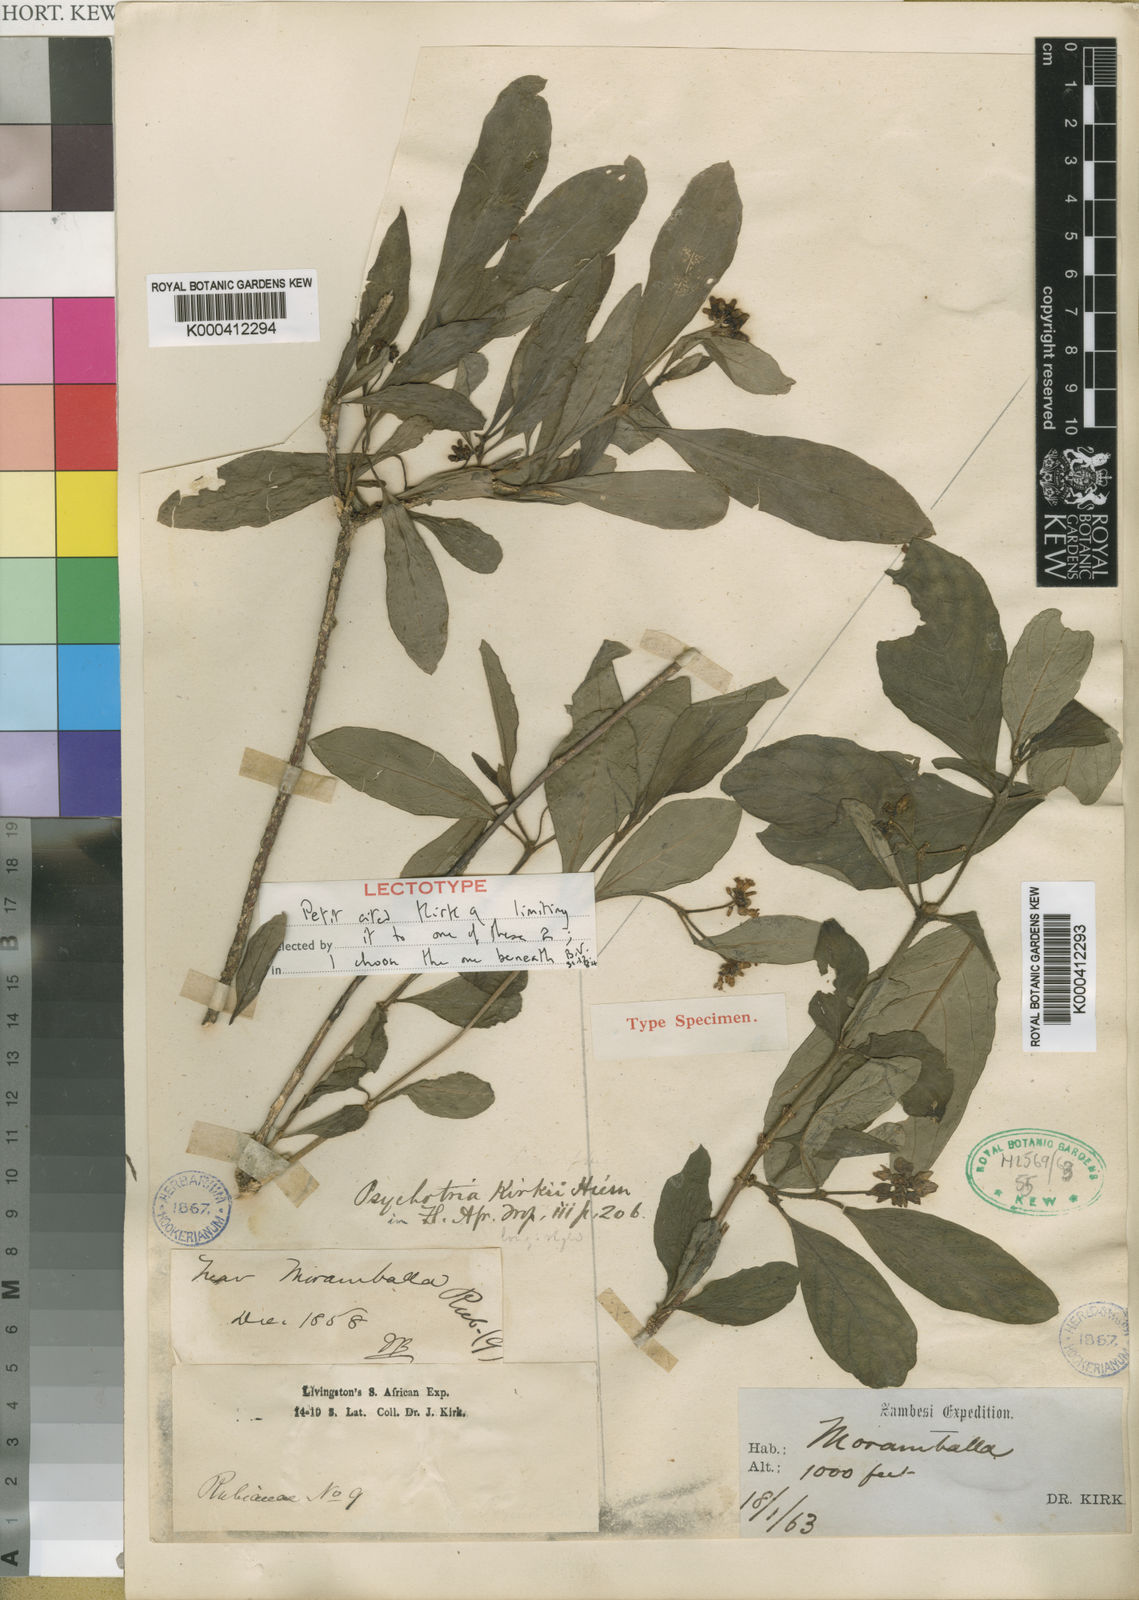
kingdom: Plantae
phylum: Tracheophyta
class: Magnoliopsida
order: Gentianales
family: Rubiaceae
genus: Psychotria
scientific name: Psychotria punctata
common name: Dotted wild coffee
